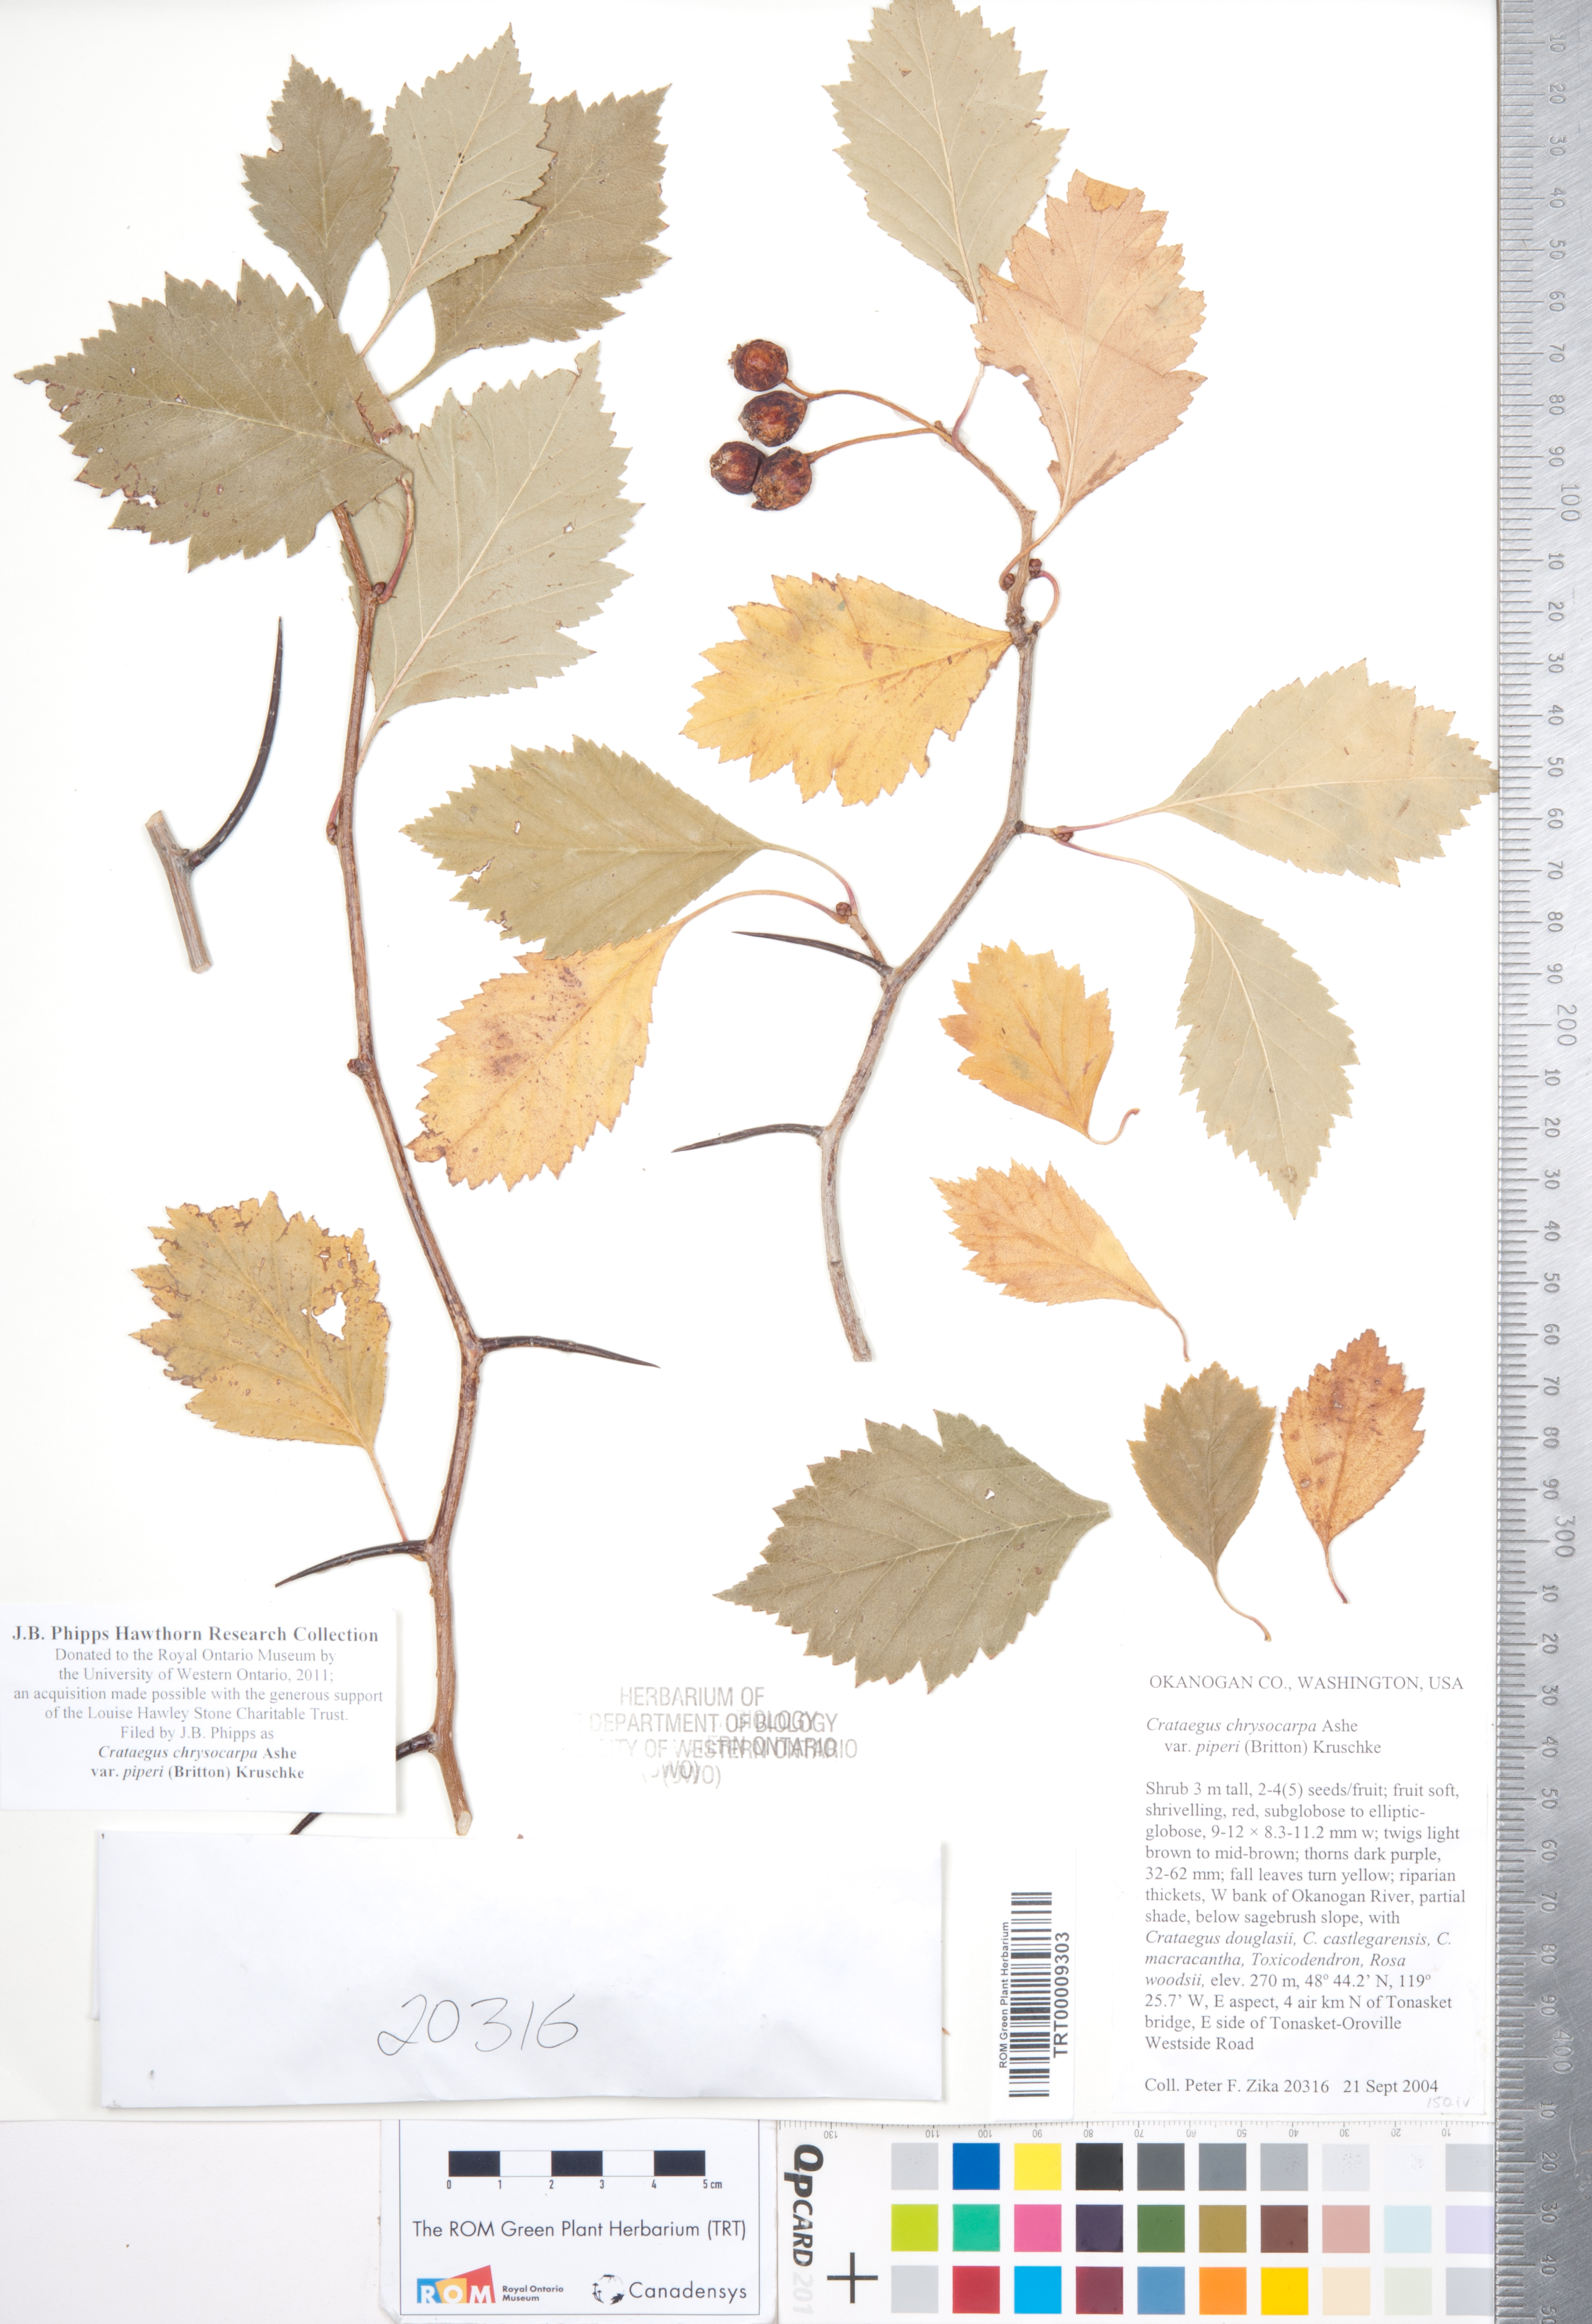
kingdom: Plantae
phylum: Tracheophyta
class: Magnoliopsida
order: Rosales
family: Rosaceae
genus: Crataegus
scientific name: Crataegus piperi
